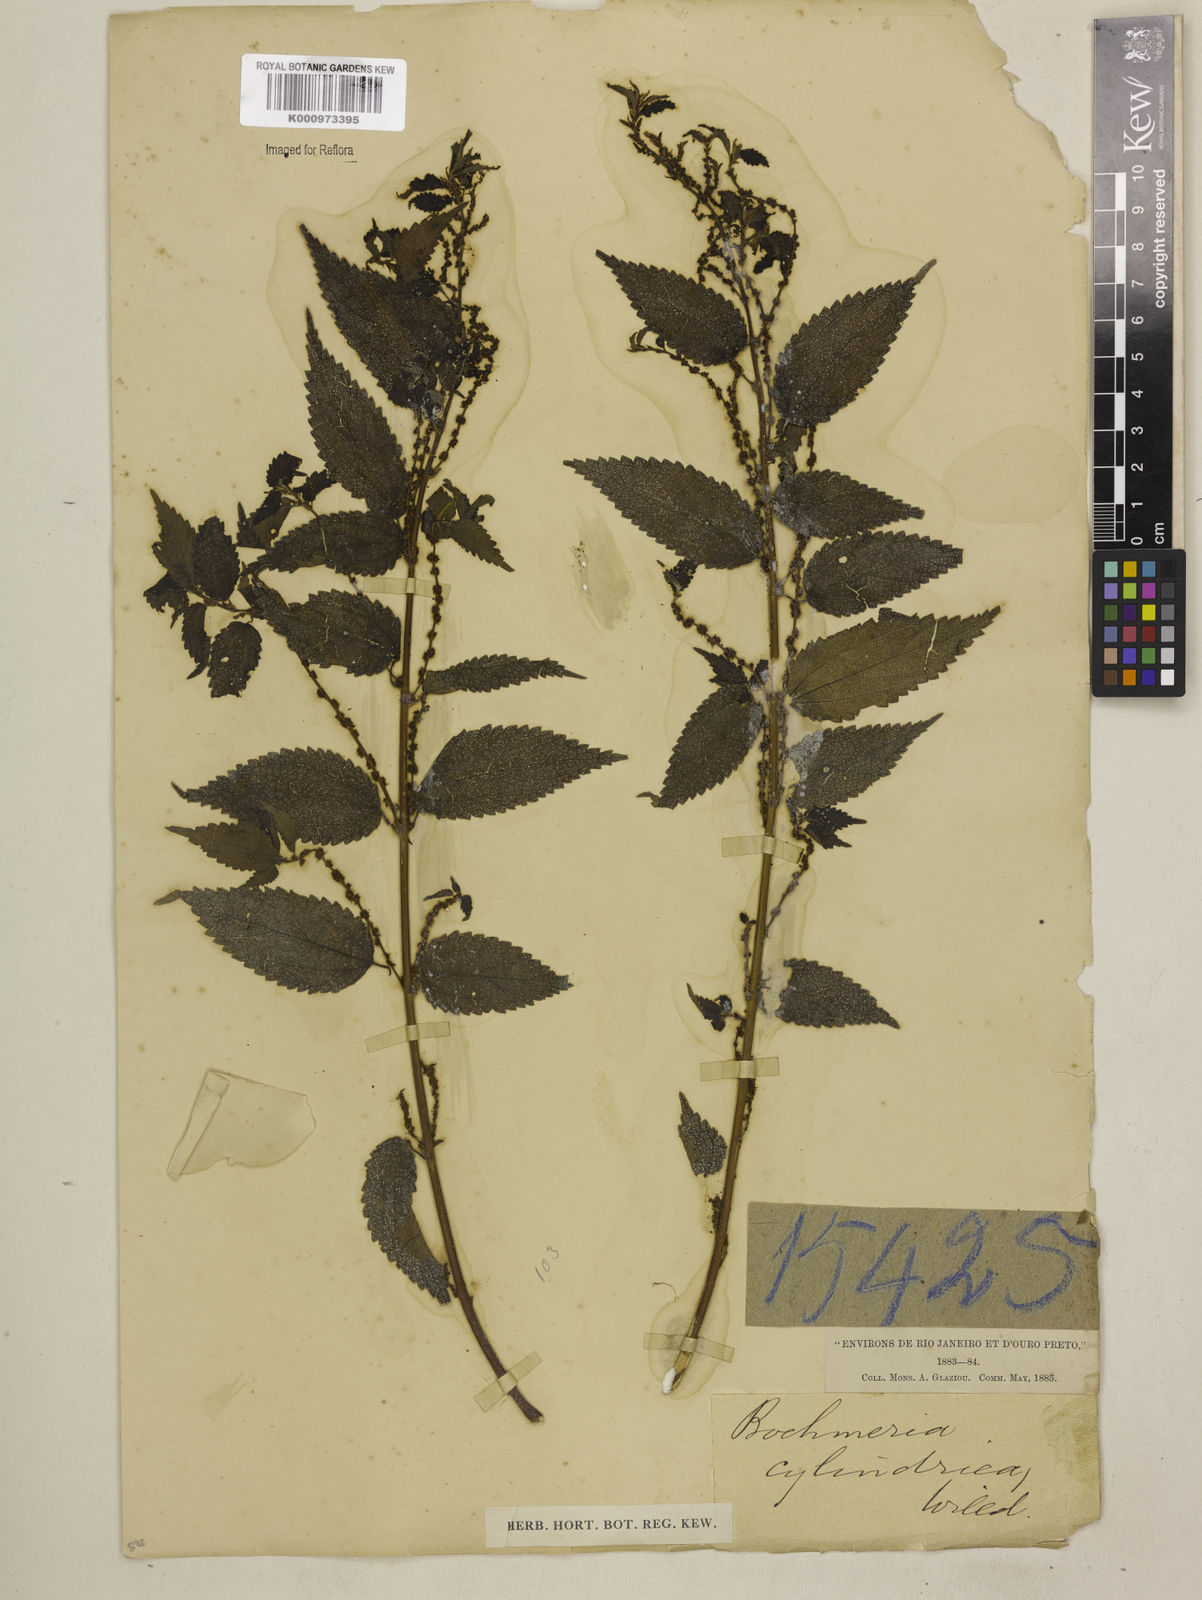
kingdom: Plantae
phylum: Tracheophyta
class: Magnoliopsida
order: Rosales
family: Urticaceae
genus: Boehmeria
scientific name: Boehmeria cylindrica
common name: Bog-hemp
